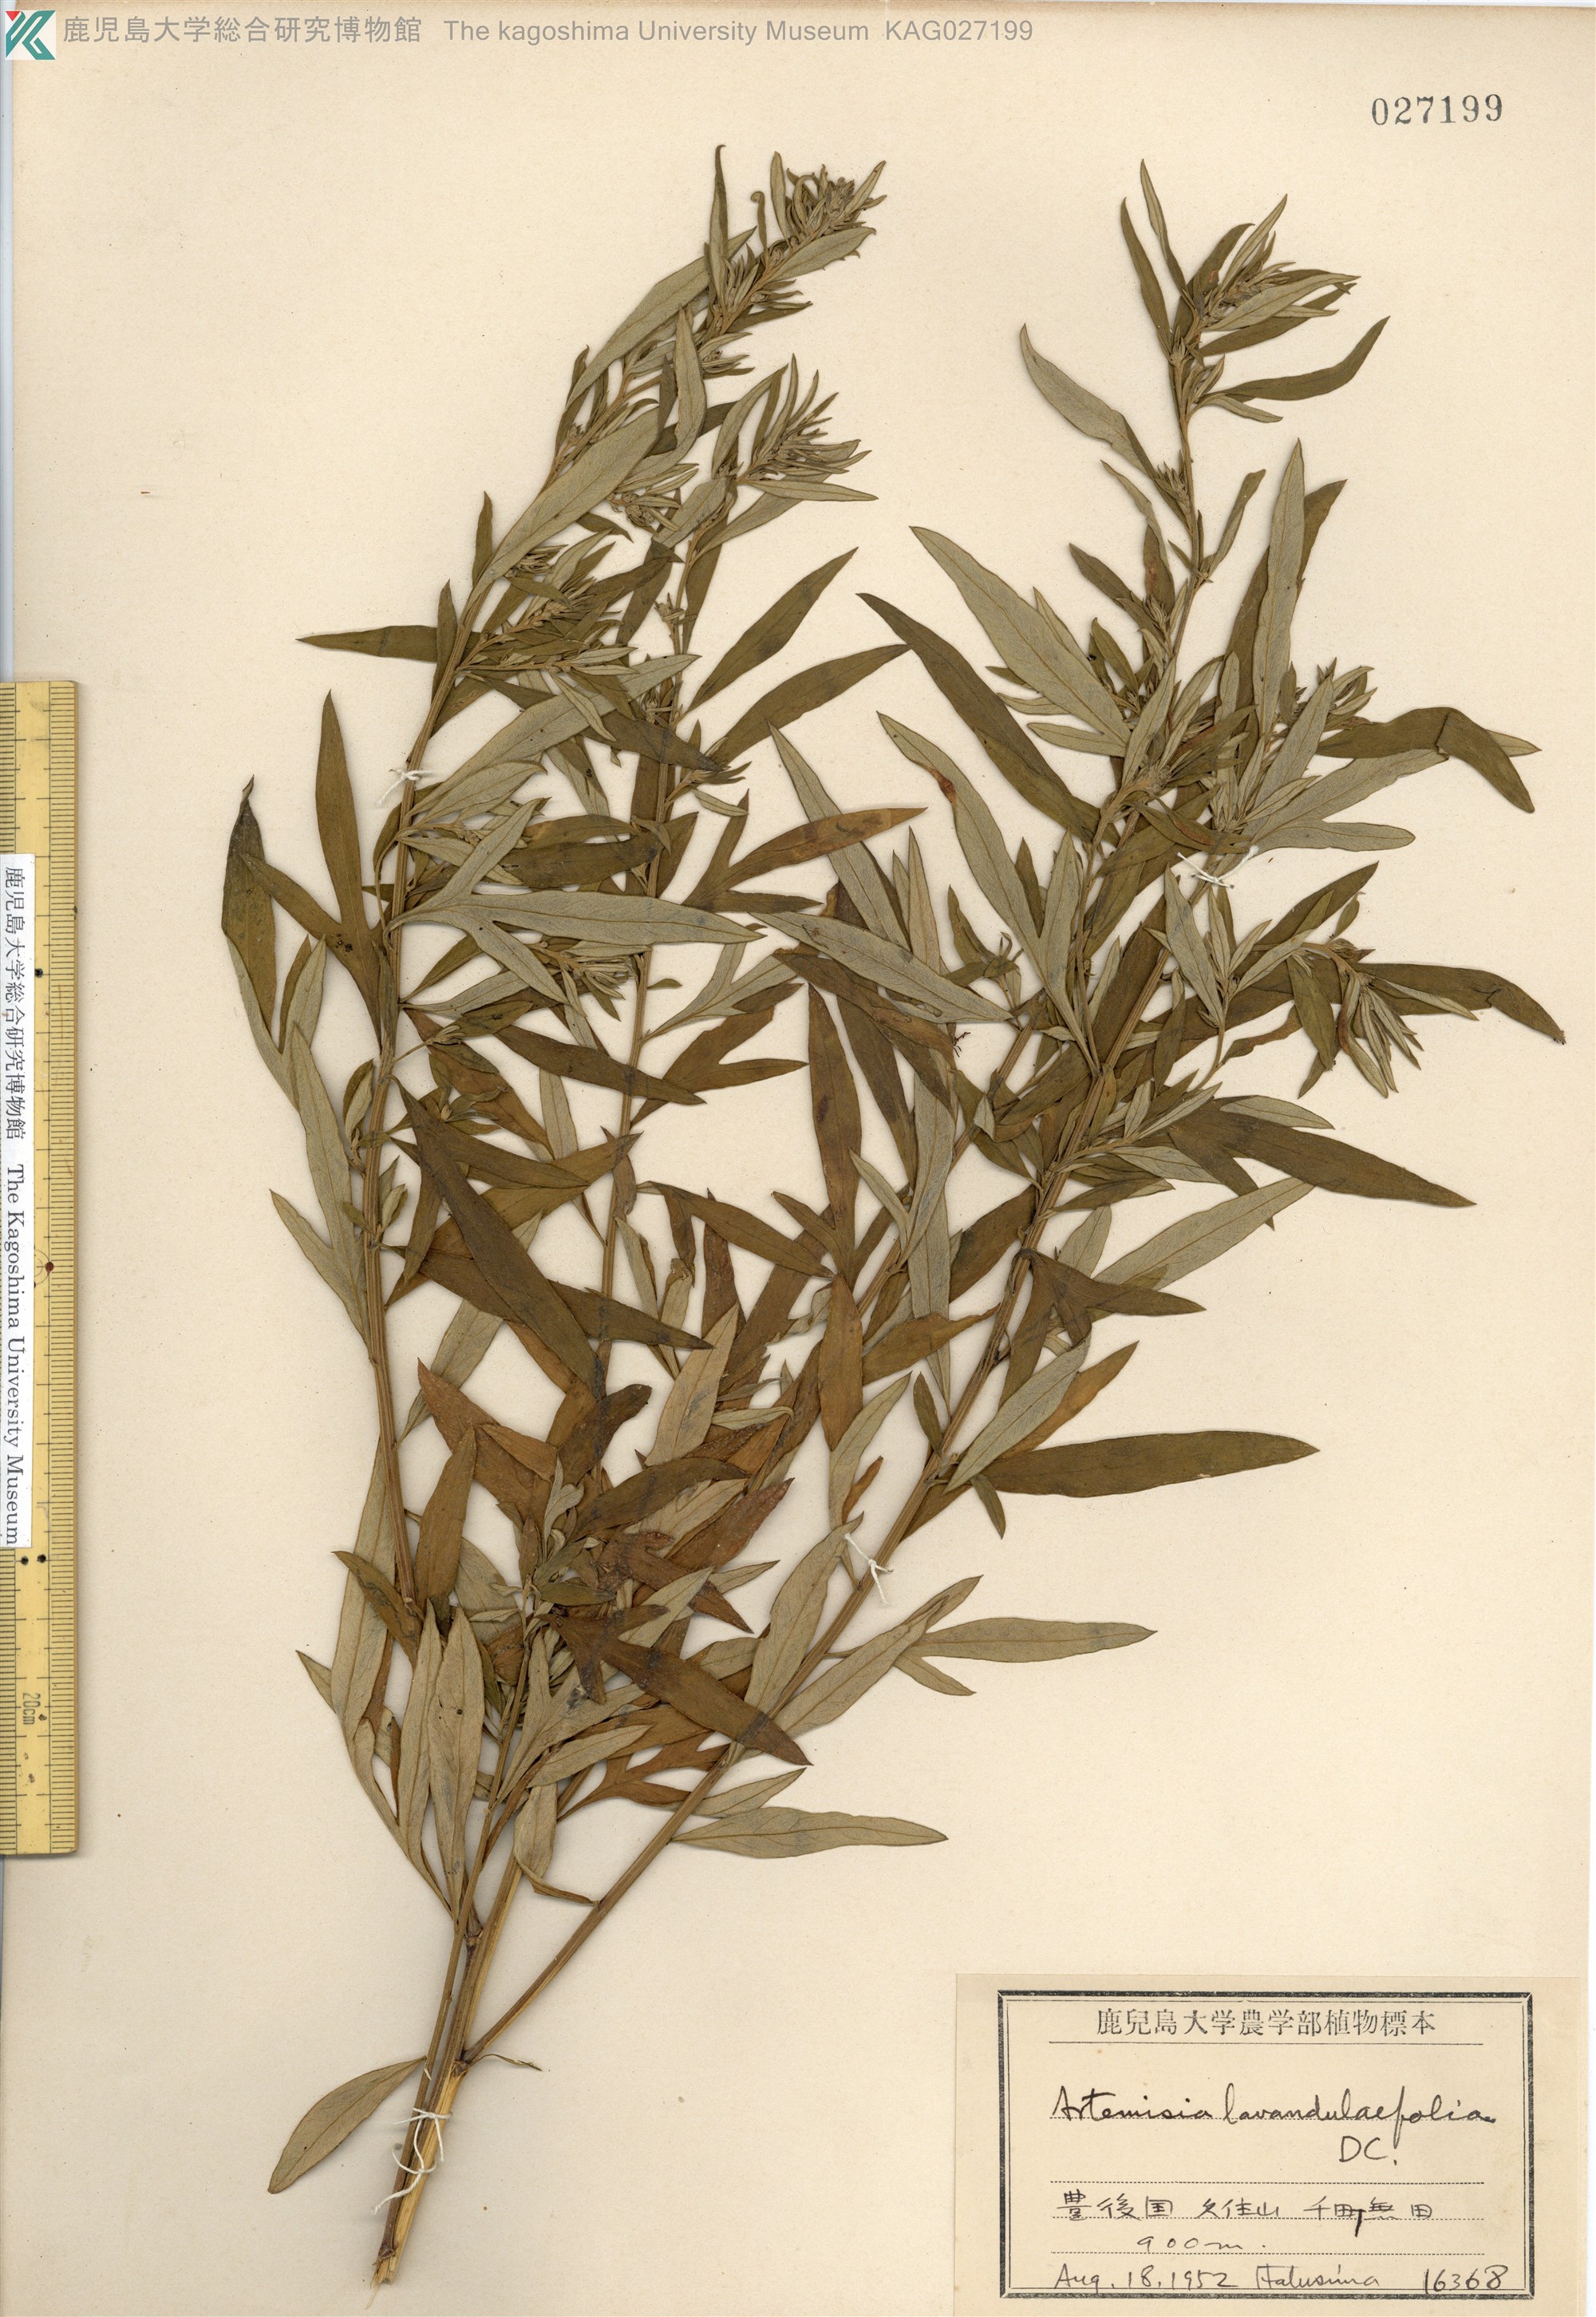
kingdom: Plantae
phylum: Tracheophyta
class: Magnoliopsida
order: Asterales
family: Asteraceae
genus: Artemisia
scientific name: Artemisia umbrosa
